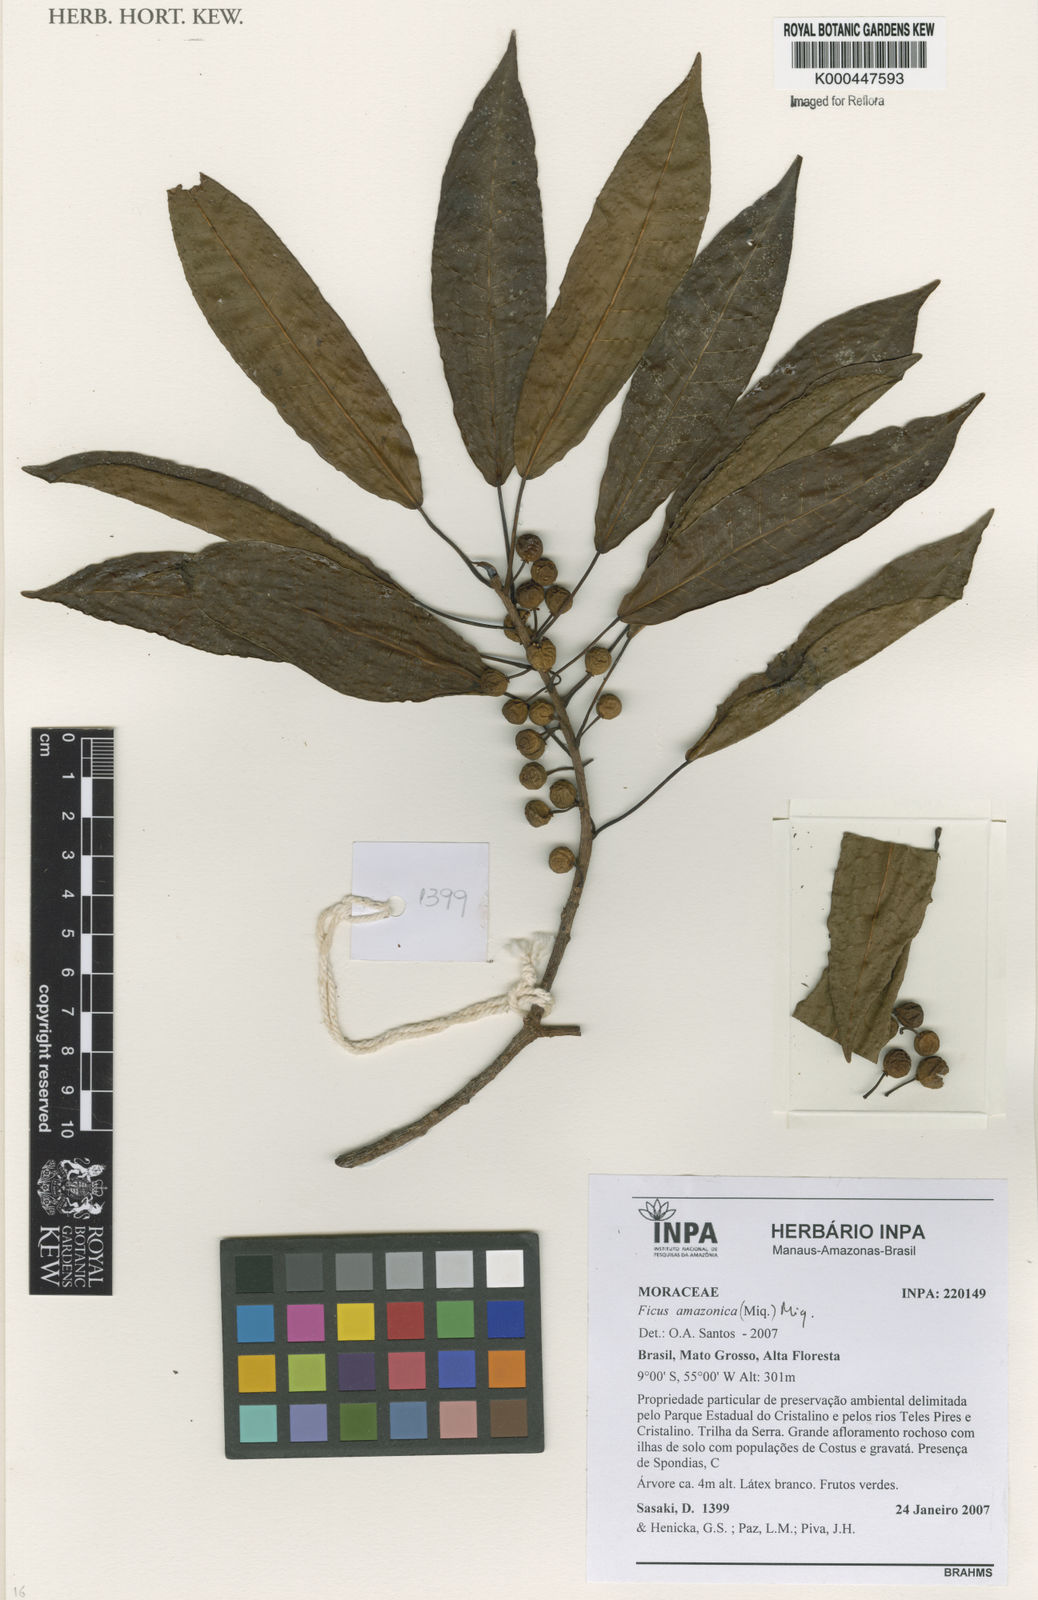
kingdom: Plantae
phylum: Tracheophyta
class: Magnoliopsida
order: Rosales
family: Moraceae
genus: Ficus
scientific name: Ficus amazonica
